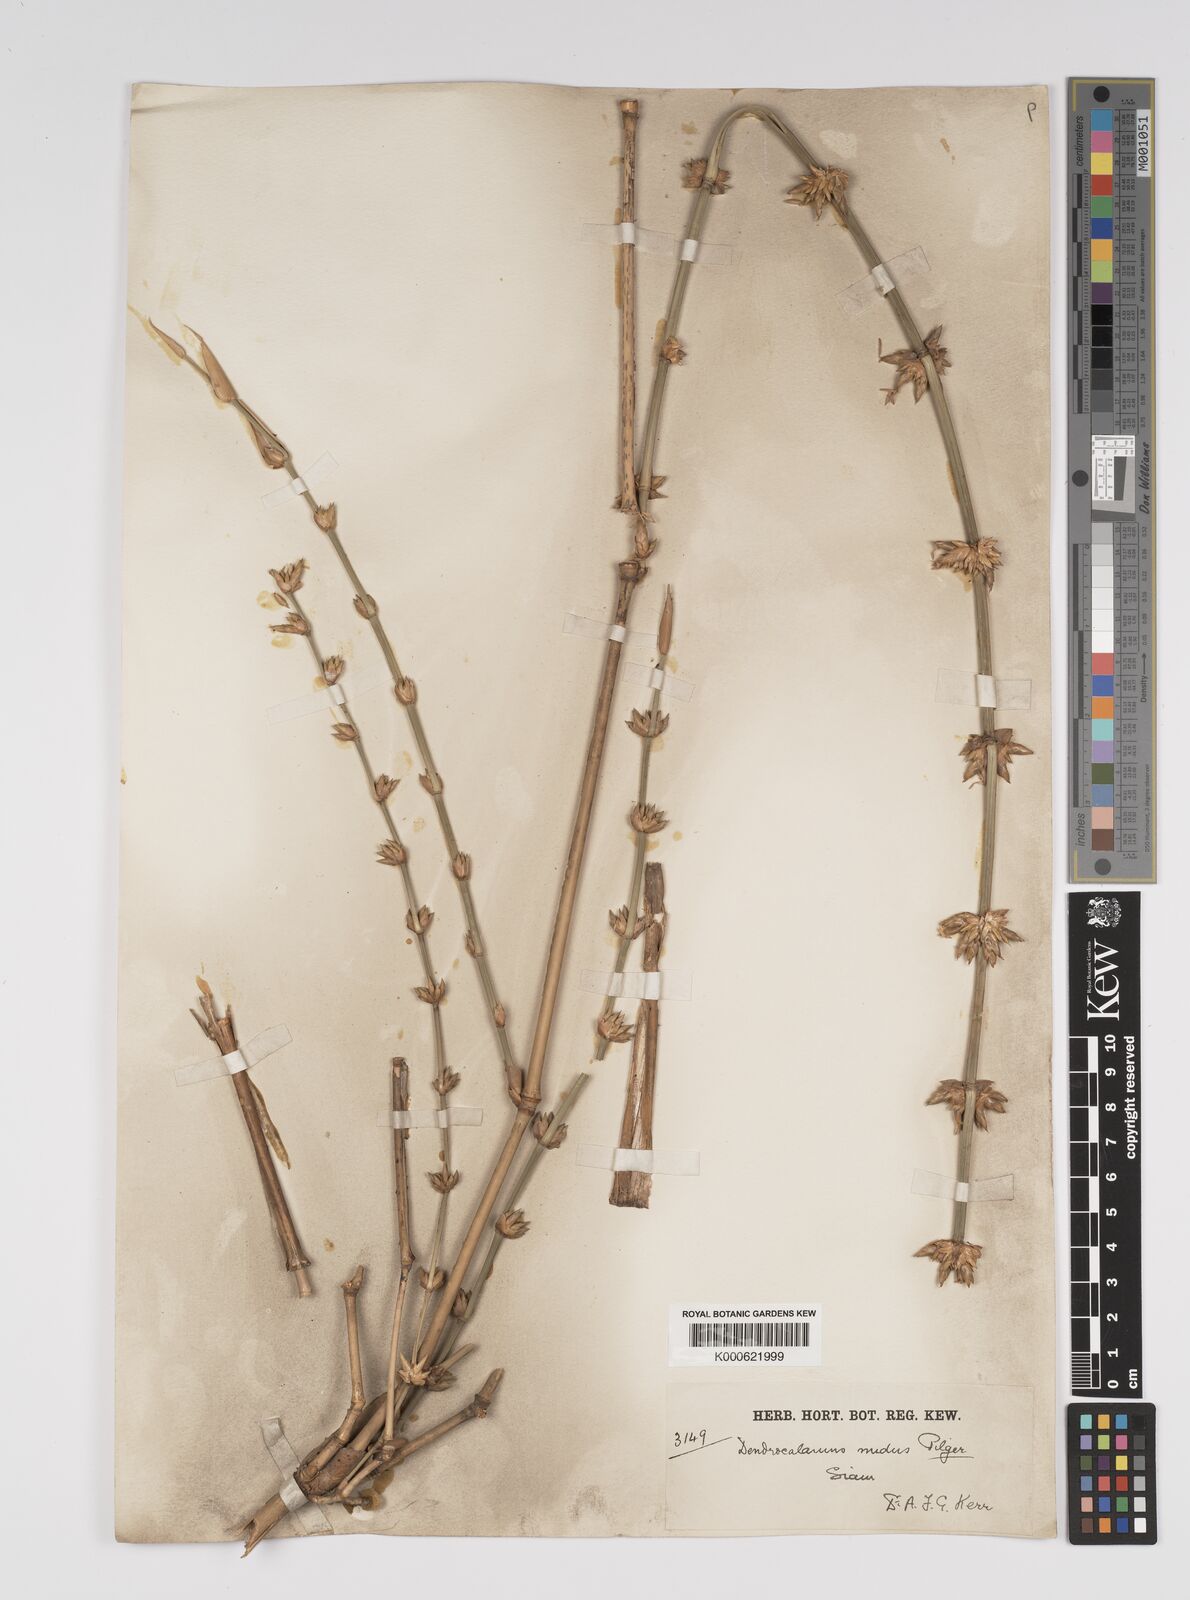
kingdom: Plantae
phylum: Tracheophyta
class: Liliopsida
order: Poales
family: Poaceae
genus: Bambusa
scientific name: Bambusa
